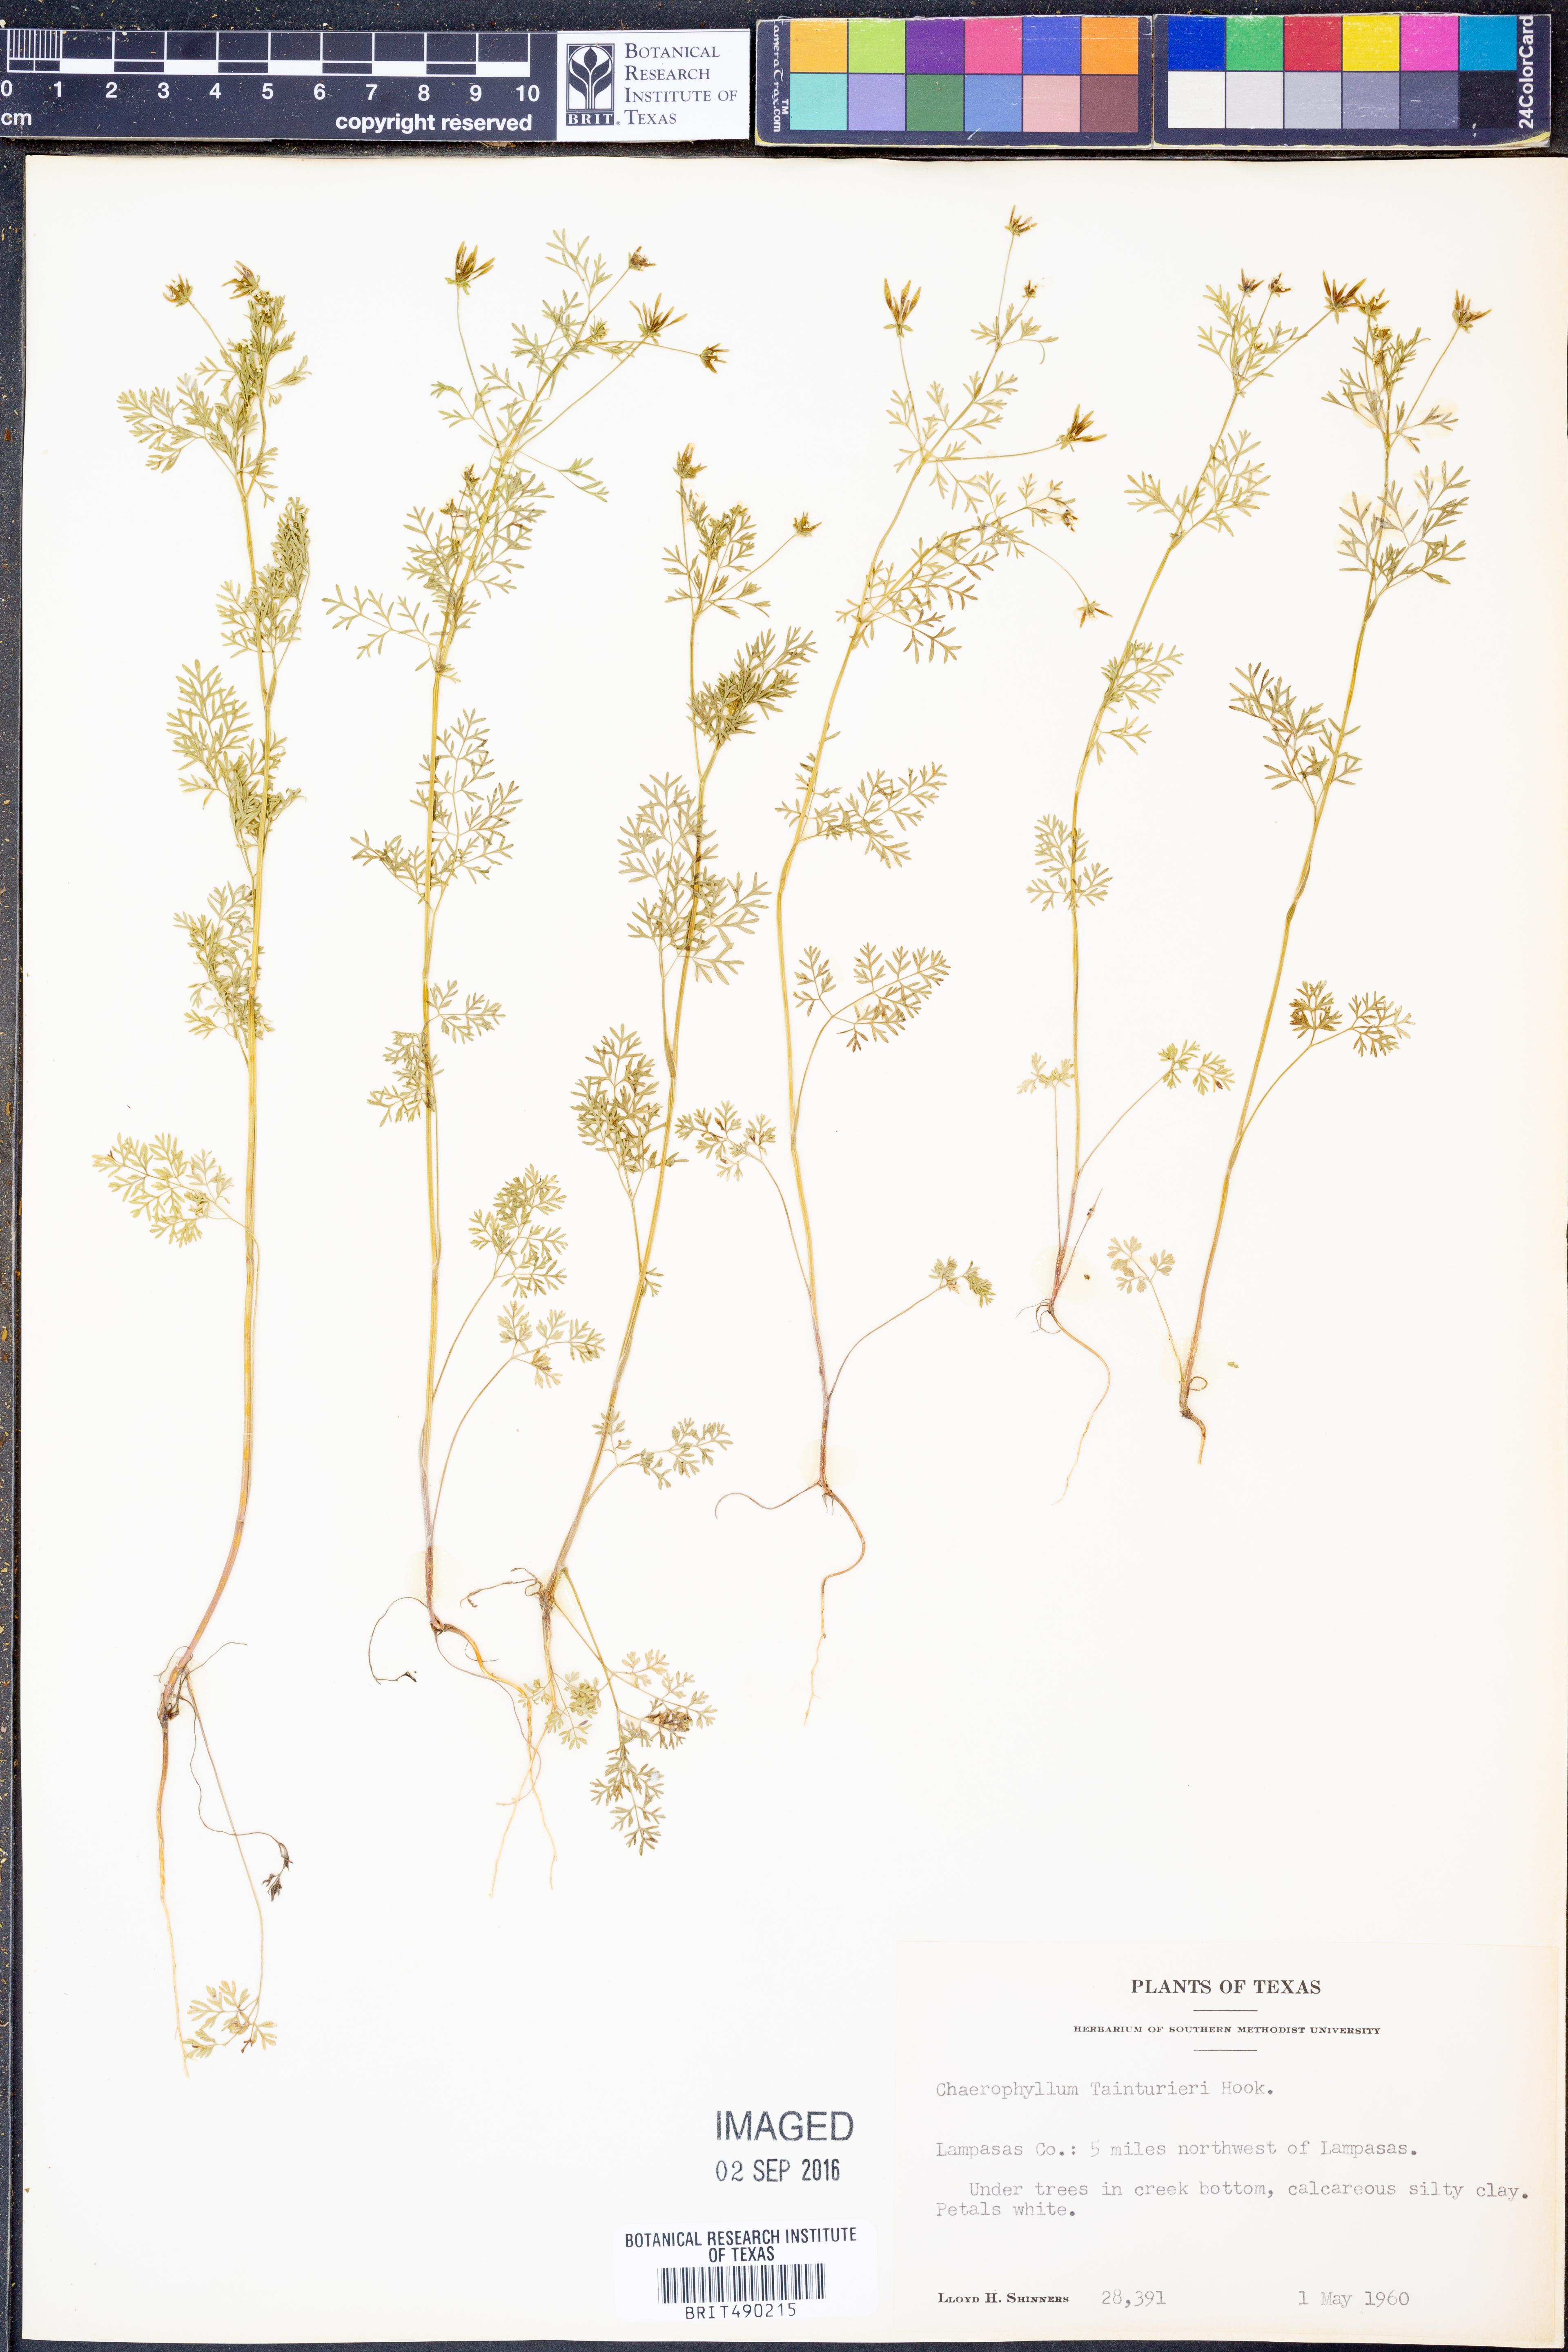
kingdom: Plantae
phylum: Tracheophyta
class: Magnoliopsida
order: Apiales
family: Apiaceae
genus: Chaerophyllum
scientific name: Chaerophyllum tainturieri
